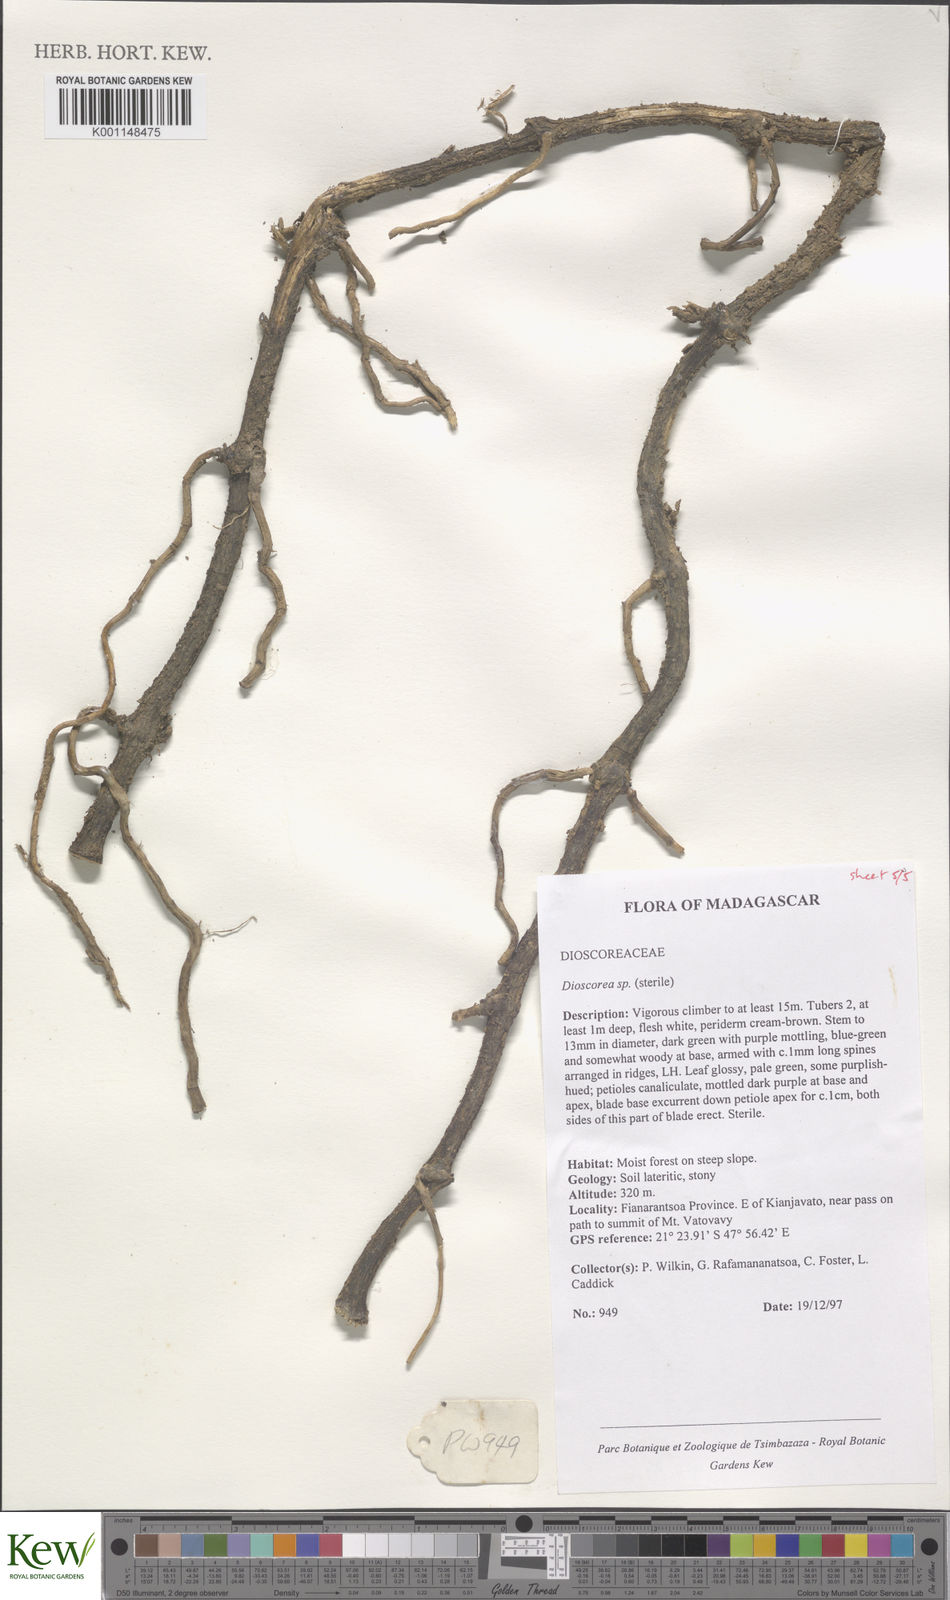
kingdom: Plantae
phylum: Tracheophyta
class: Liliopsida
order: Dioscoreales
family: Dioscoreaceae
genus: Dioscorea
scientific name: Dioscorea
